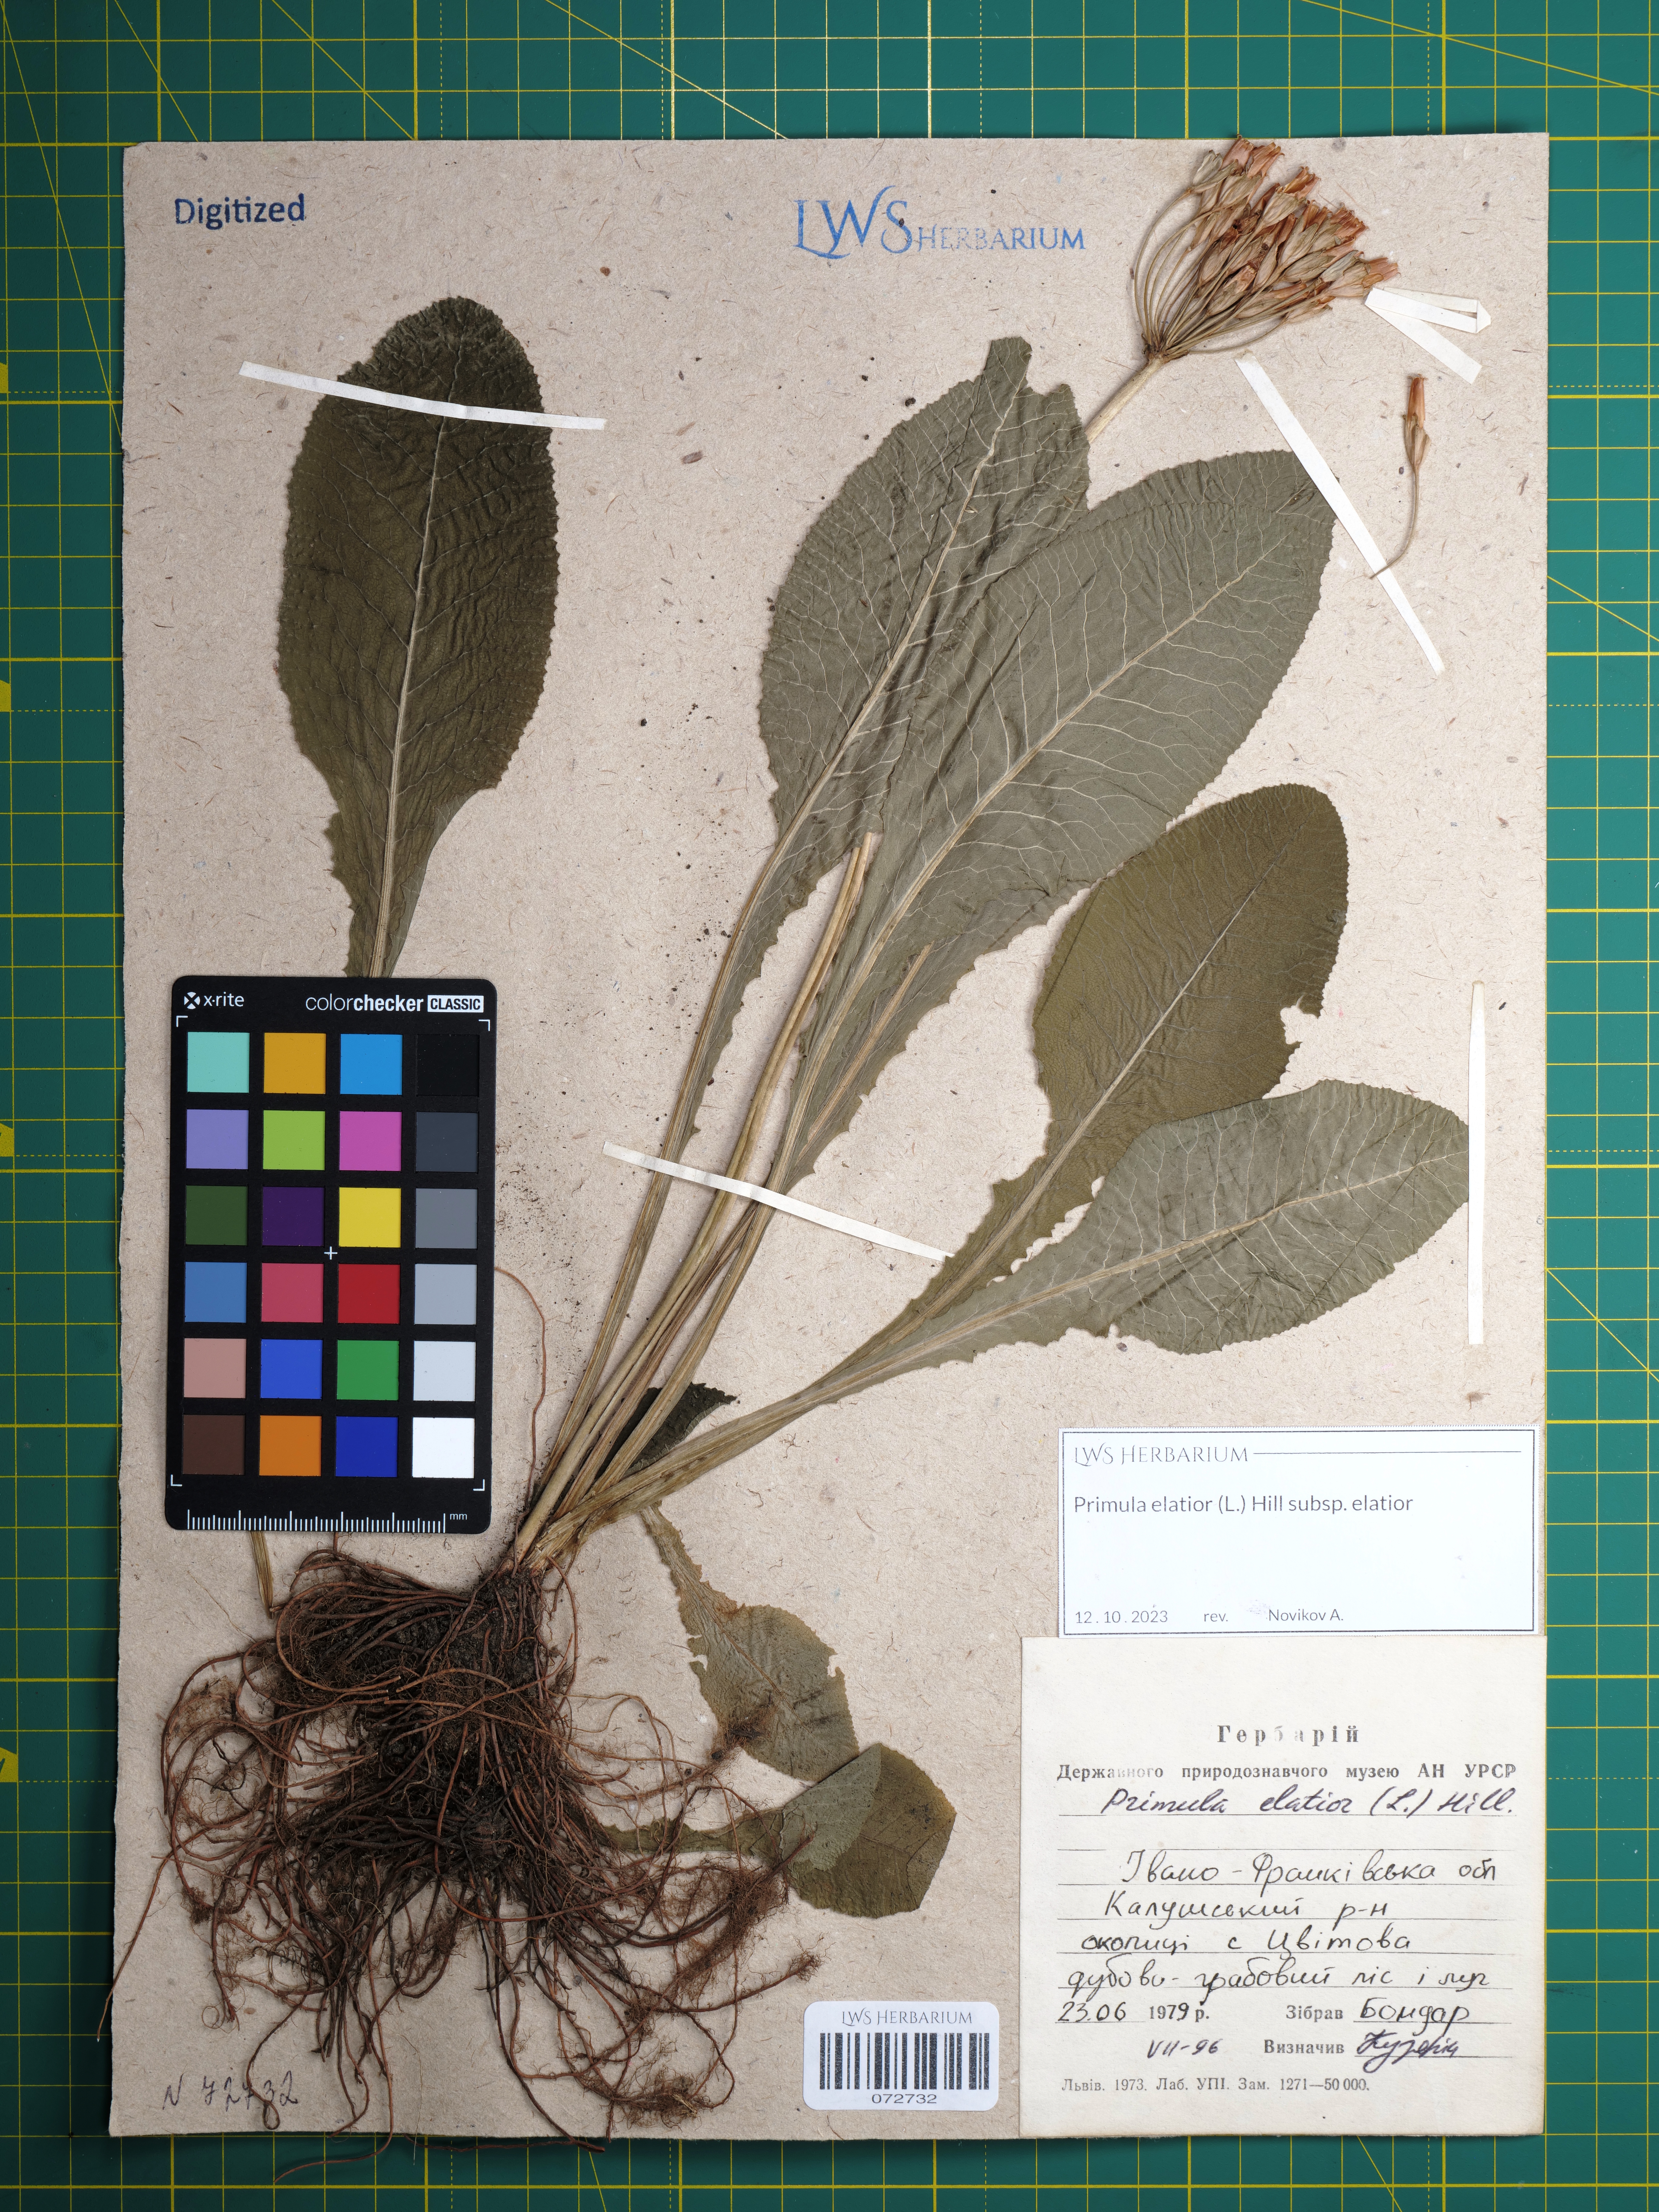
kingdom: Plantae
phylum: Tracheophyta
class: Magnoliopsida
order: Ericales
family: Primulaceae
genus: Primula
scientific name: Primula elatior
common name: Oxlip
